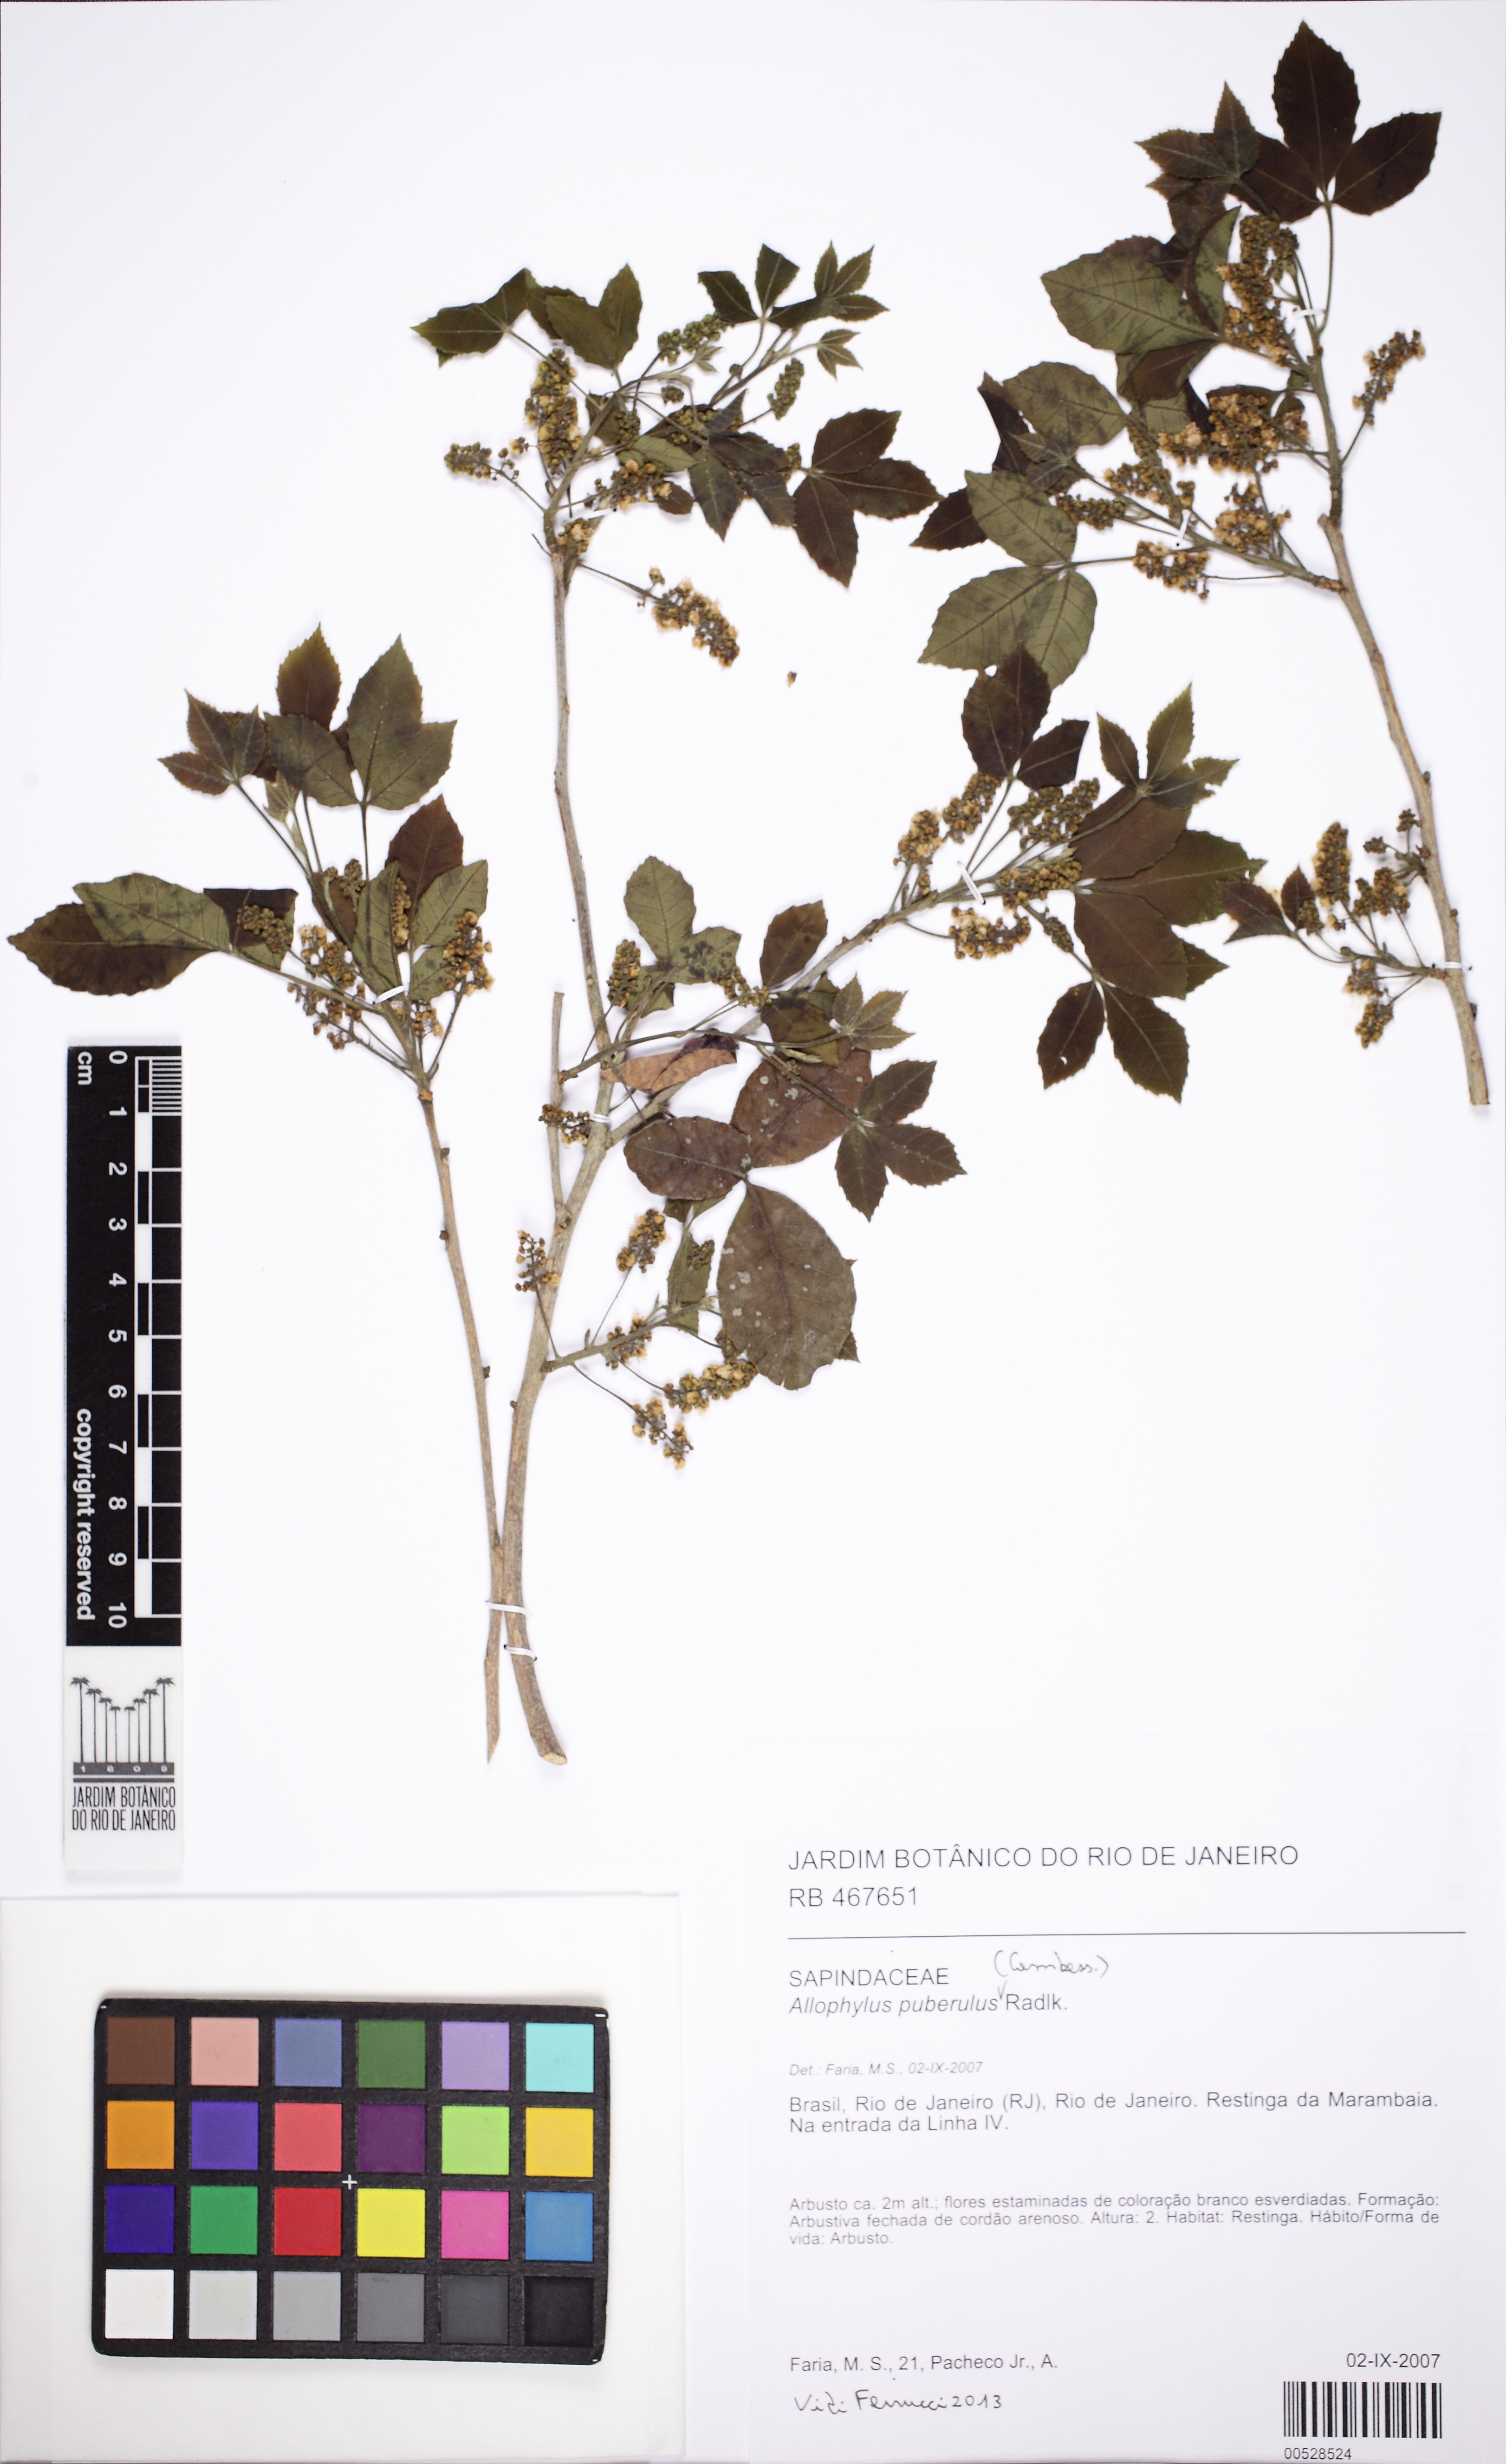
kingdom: Plantae
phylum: Tracheophyta
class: Magnoliopsida
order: Sapindales
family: Sapindaceae
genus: Allophylus
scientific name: Allophylus puberulus
